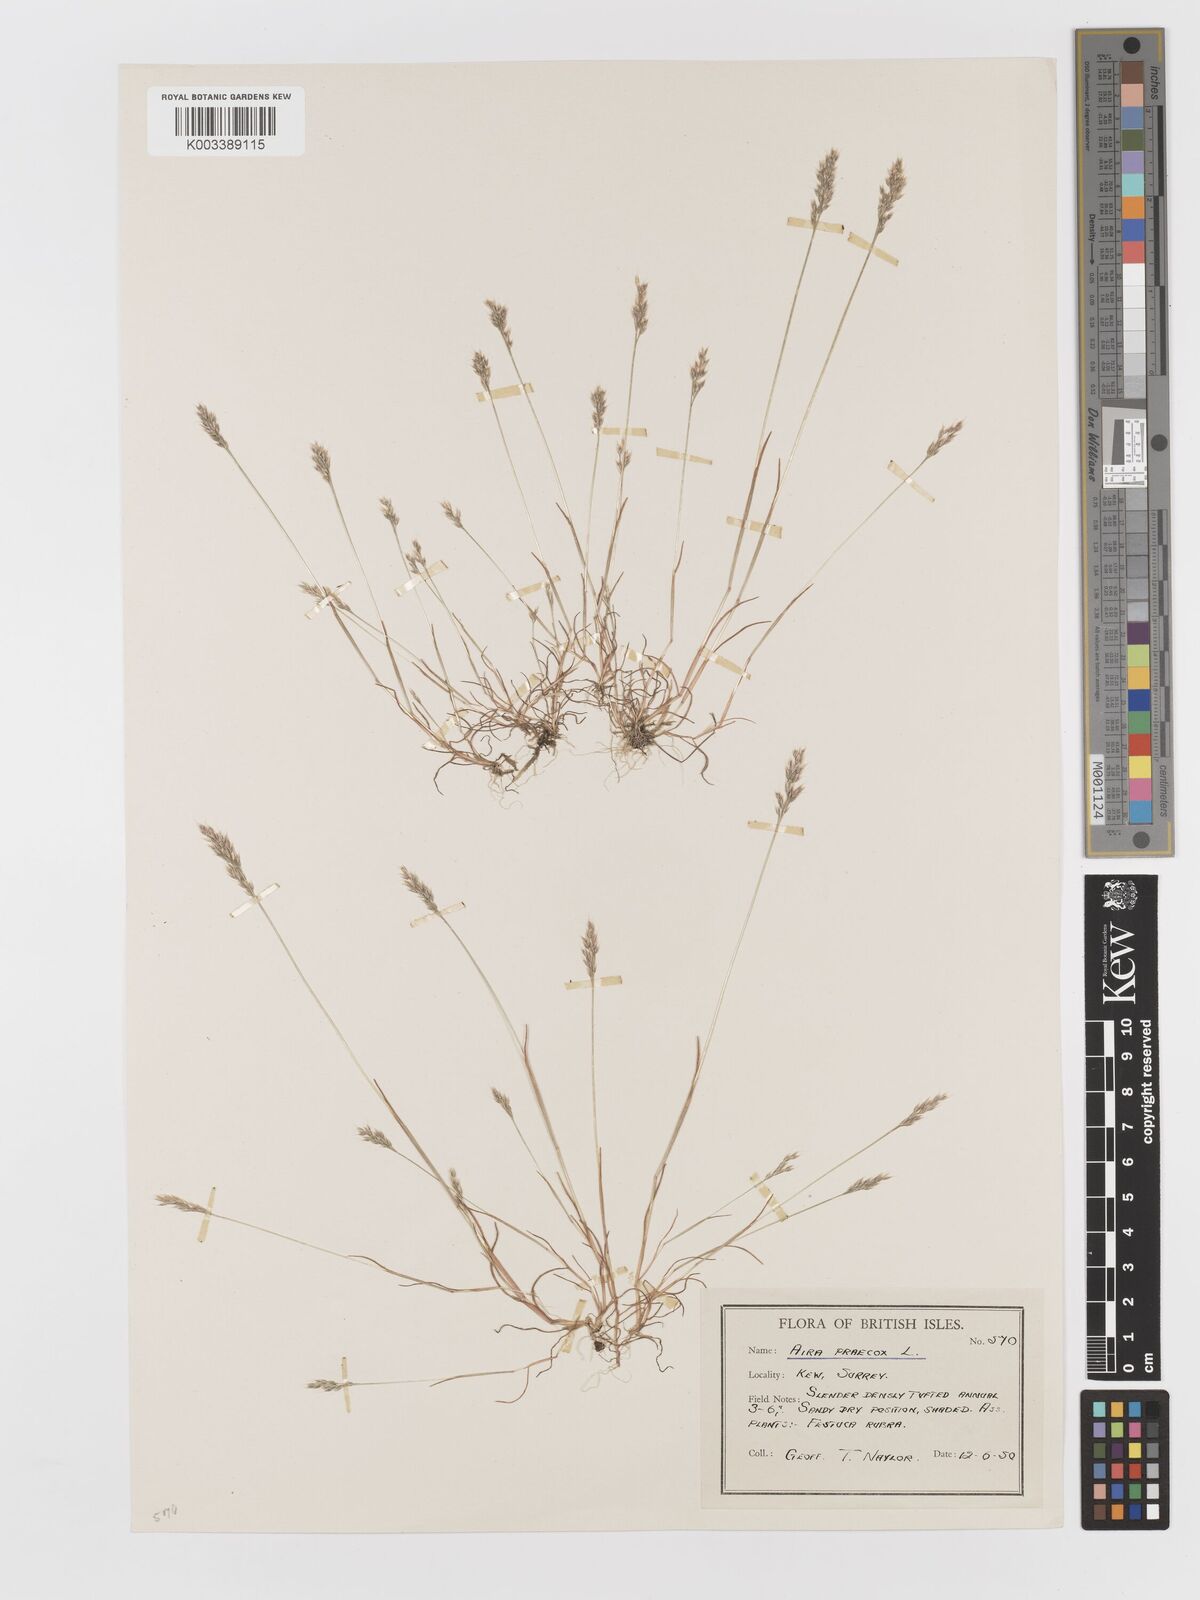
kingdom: Plantae
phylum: Tracheophyta
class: Liliopsida
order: Poales
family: Poaceae
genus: Aira
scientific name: Aira praecox
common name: Early hair-grass
